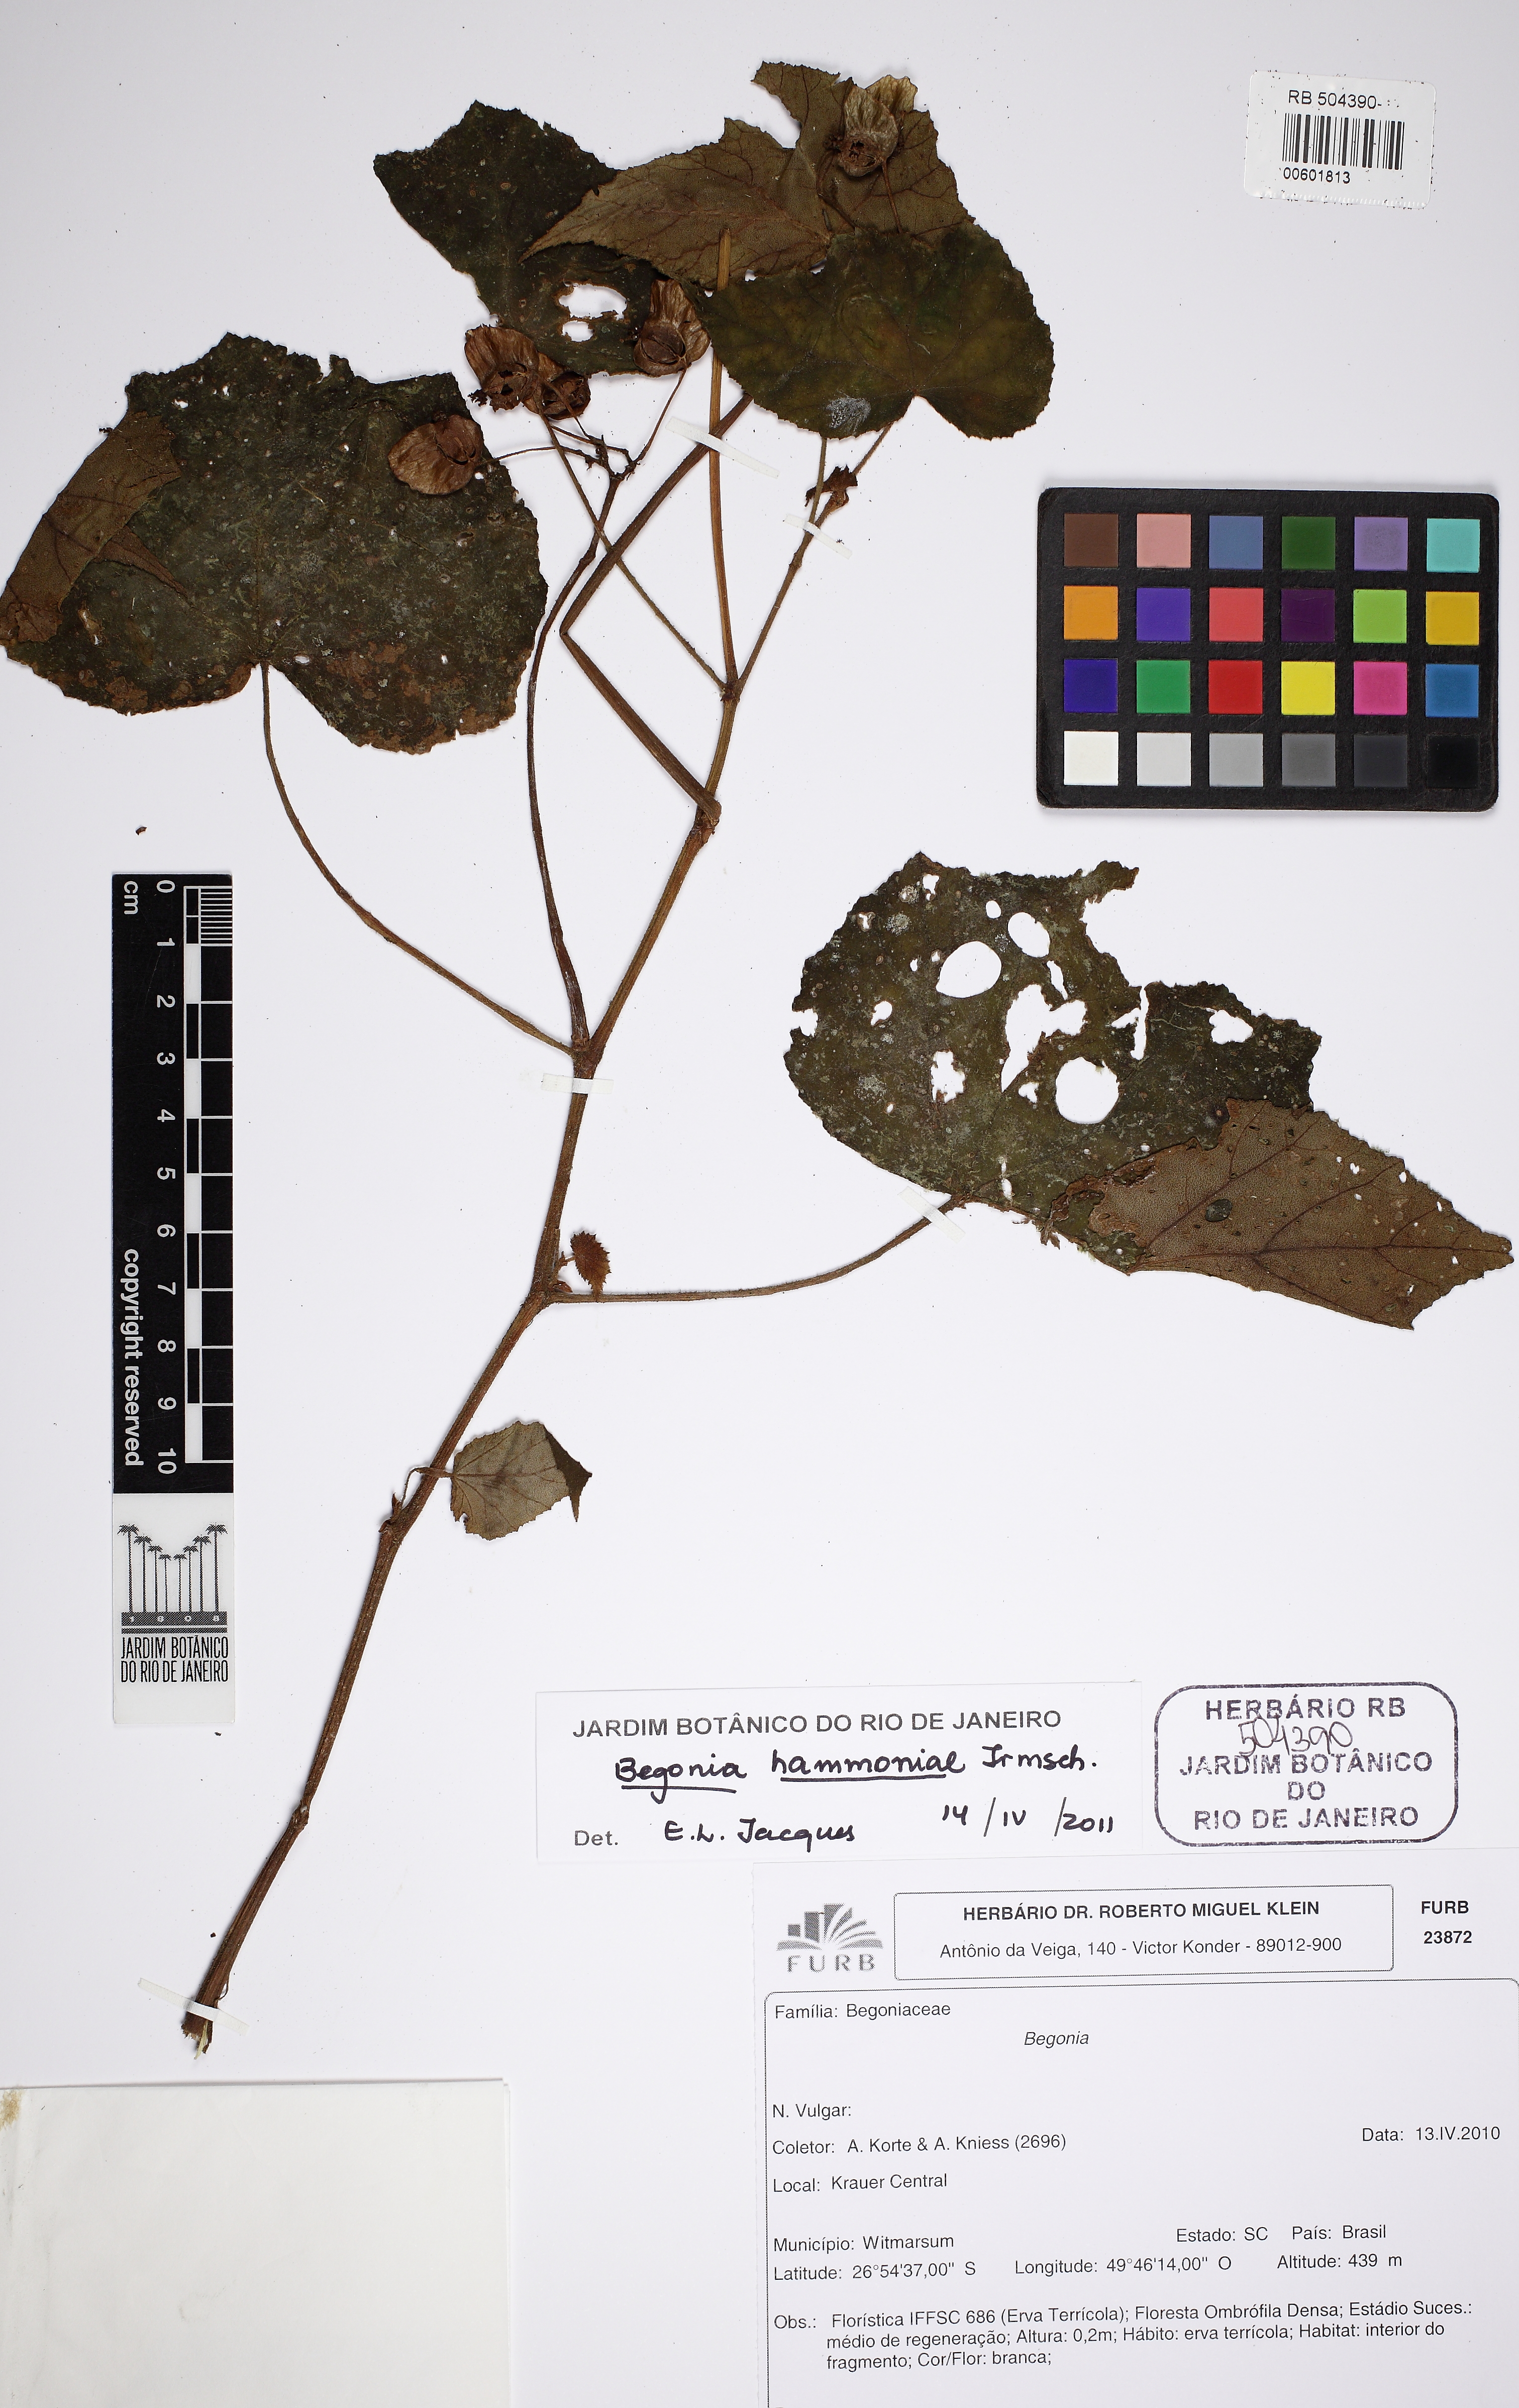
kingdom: Plantae
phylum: Tracheophyta
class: Magnoliopsida
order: Cucurbitales
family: Begoniaceae
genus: Begonia
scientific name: Begonia hammoniae
